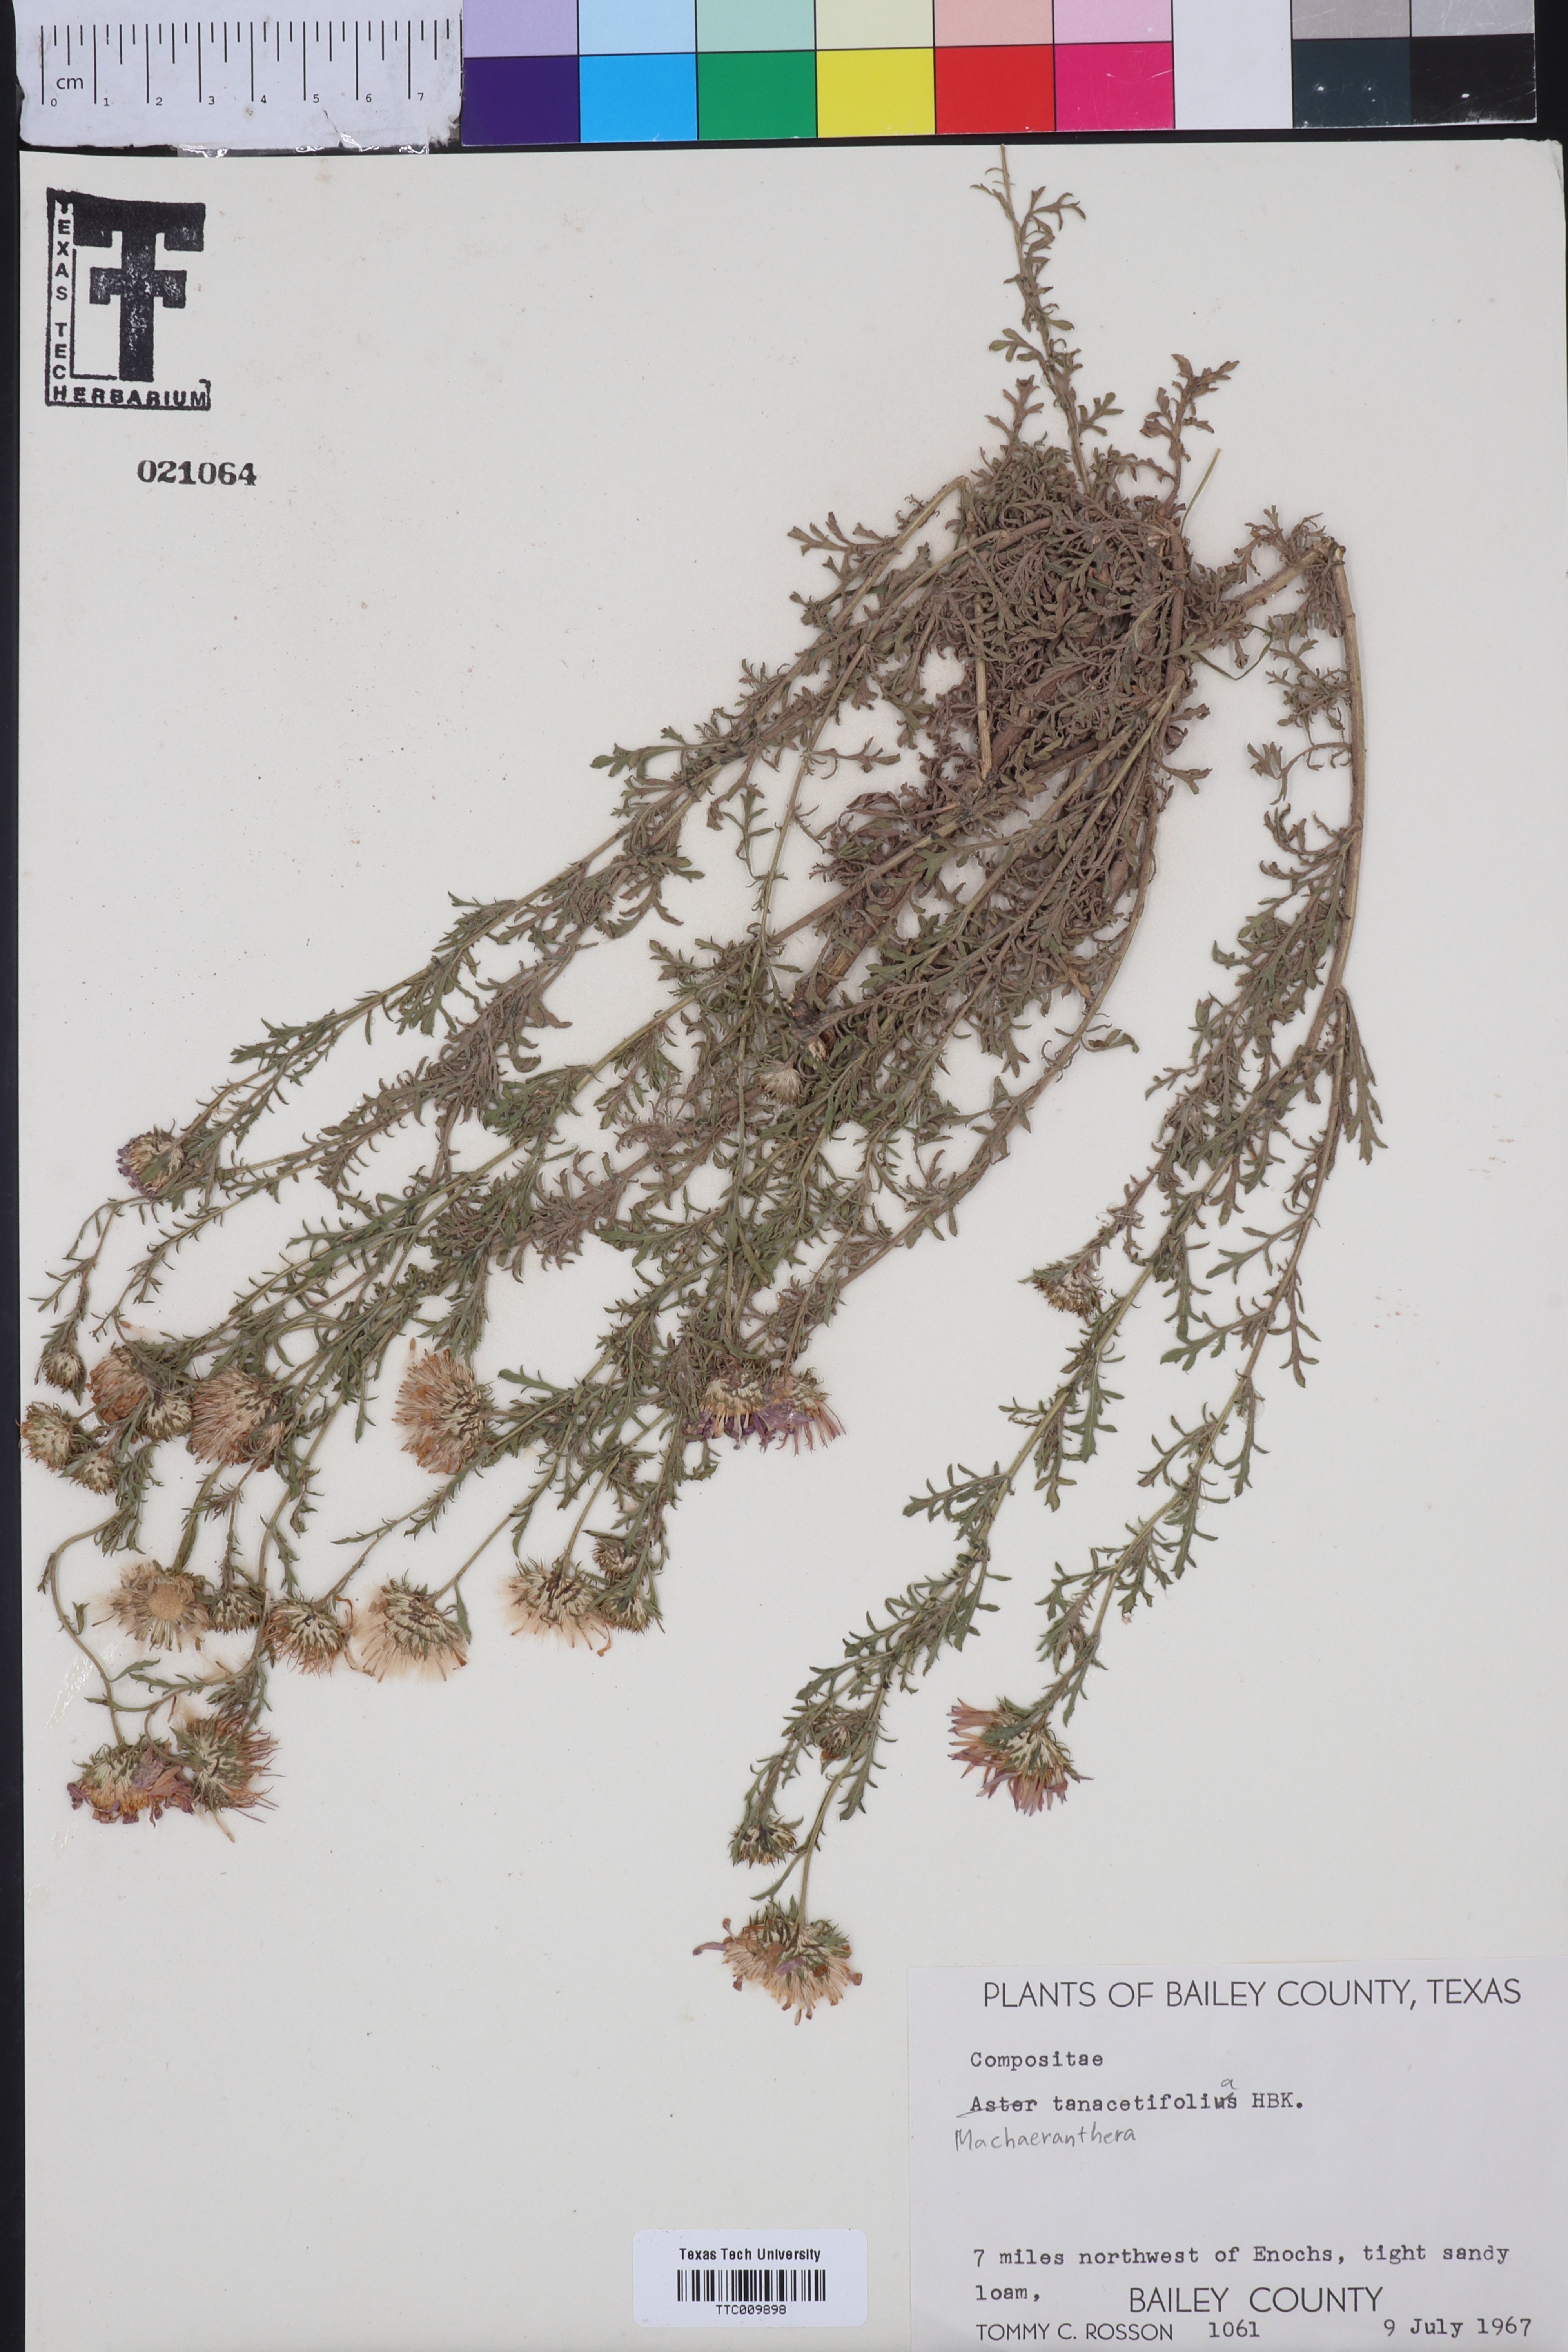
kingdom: Plantae
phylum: Tracheophyta
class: Magnoliopsida
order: Asterales
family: Asteraceae
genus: Machaeranthera
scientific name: Machaeranthera tanacetifolia
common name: Tansy-aster
